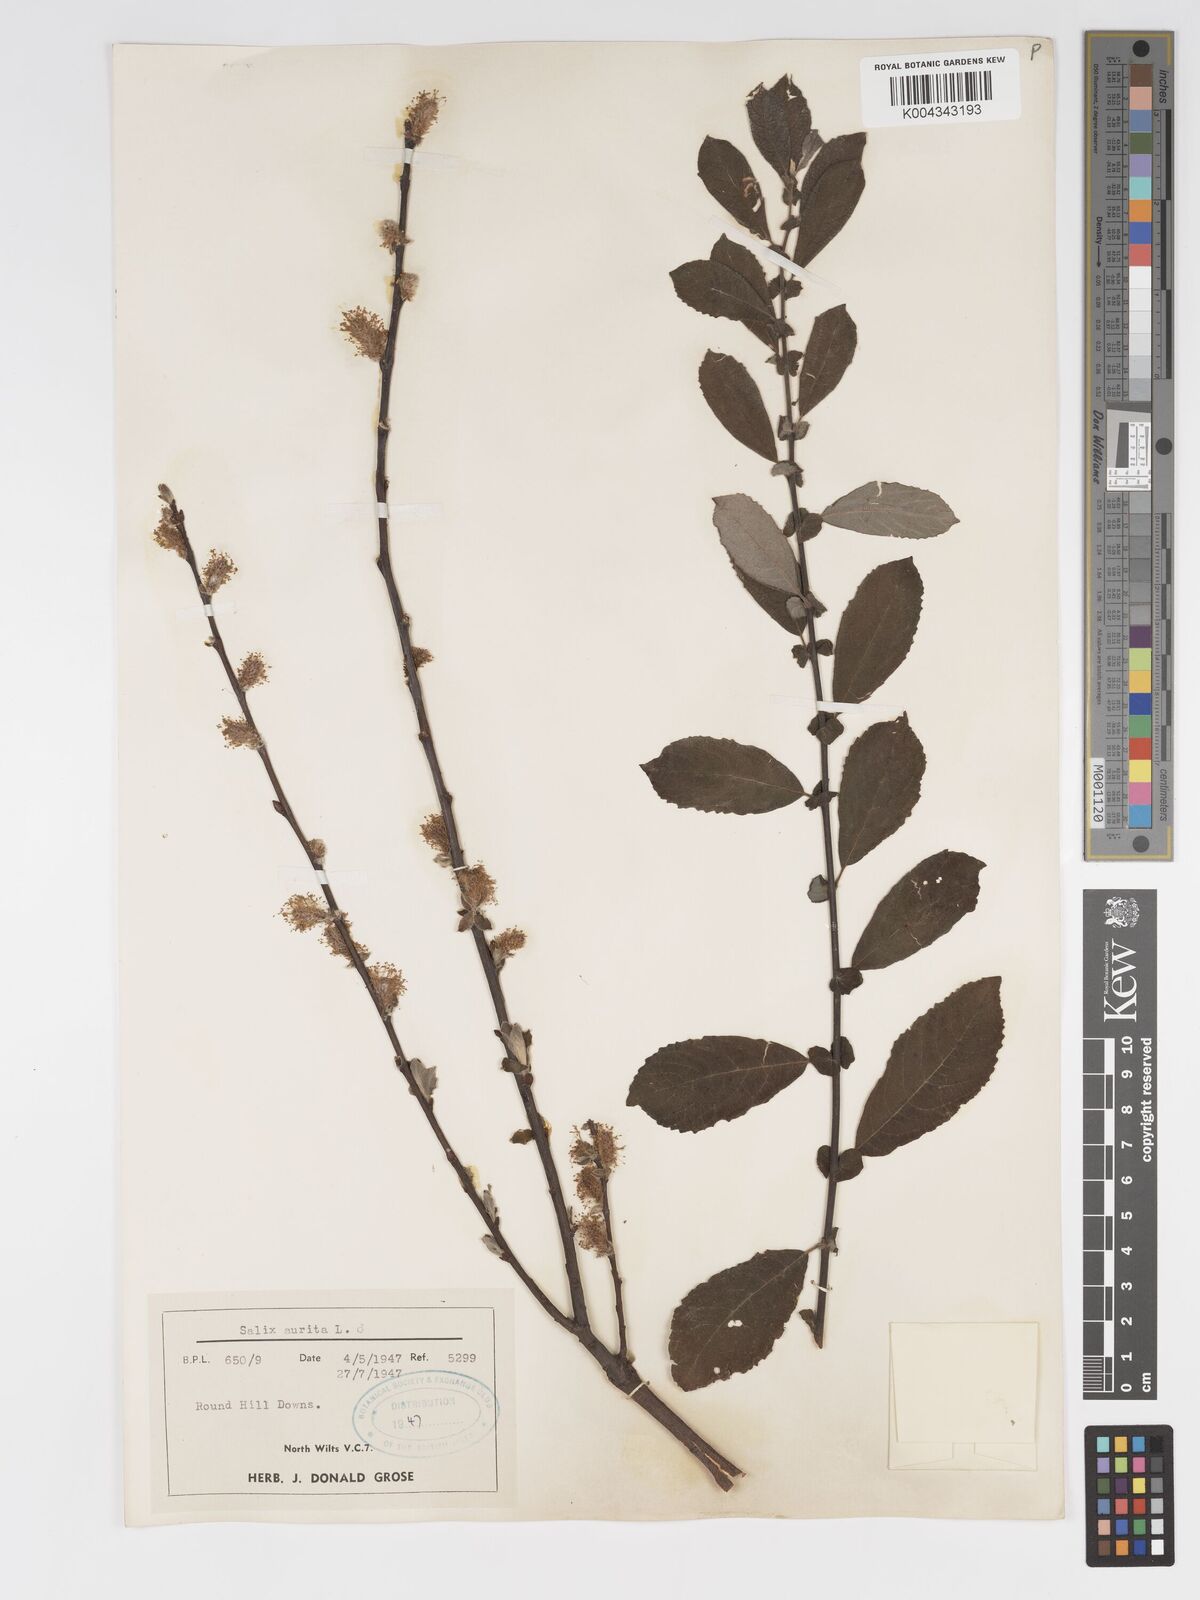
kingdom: Plantae
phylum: Tracheophyta
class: Magnoliopsida
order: Malpighiales
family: Salicaceae
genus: Salix
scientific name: Salix aurita
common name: Eared willow
